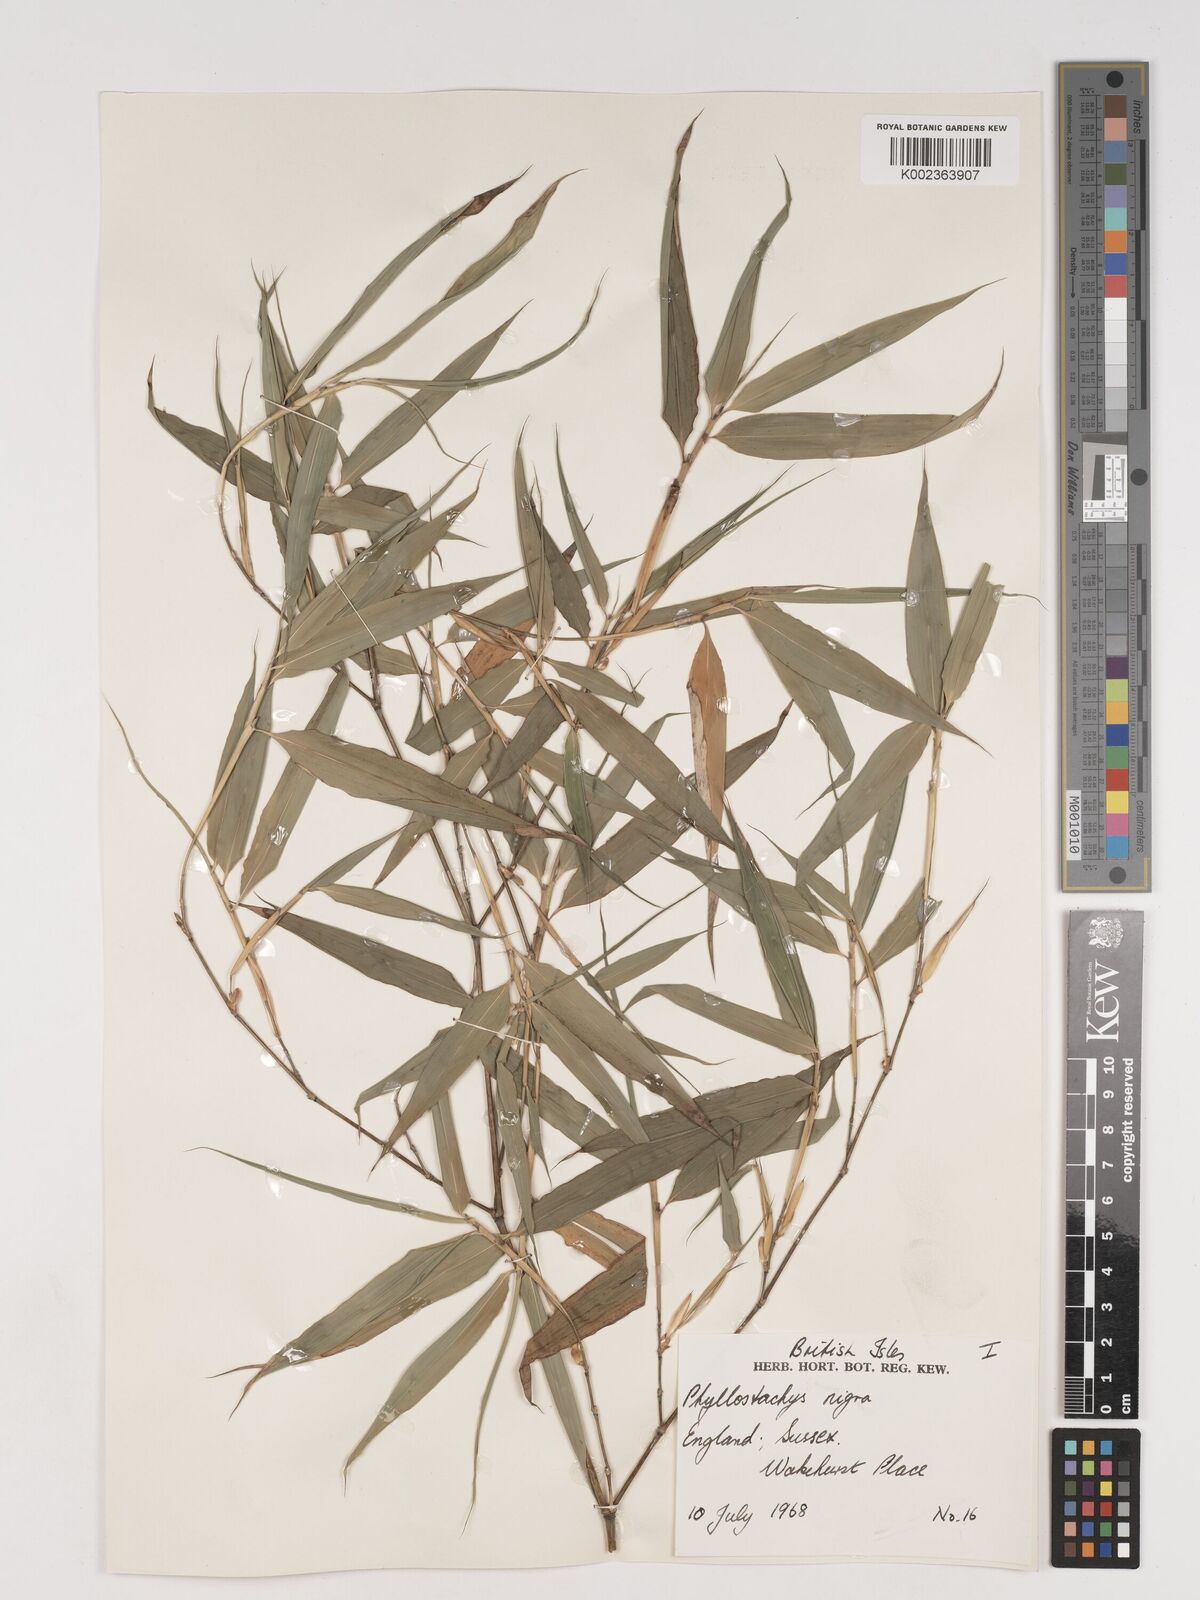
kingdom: Plantae
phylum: Tracheophyta
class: Liliopsida
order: Poales
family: Poaceae
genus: Phyllostachys
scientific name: Phyllostachys nigra
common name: Black bamboo
